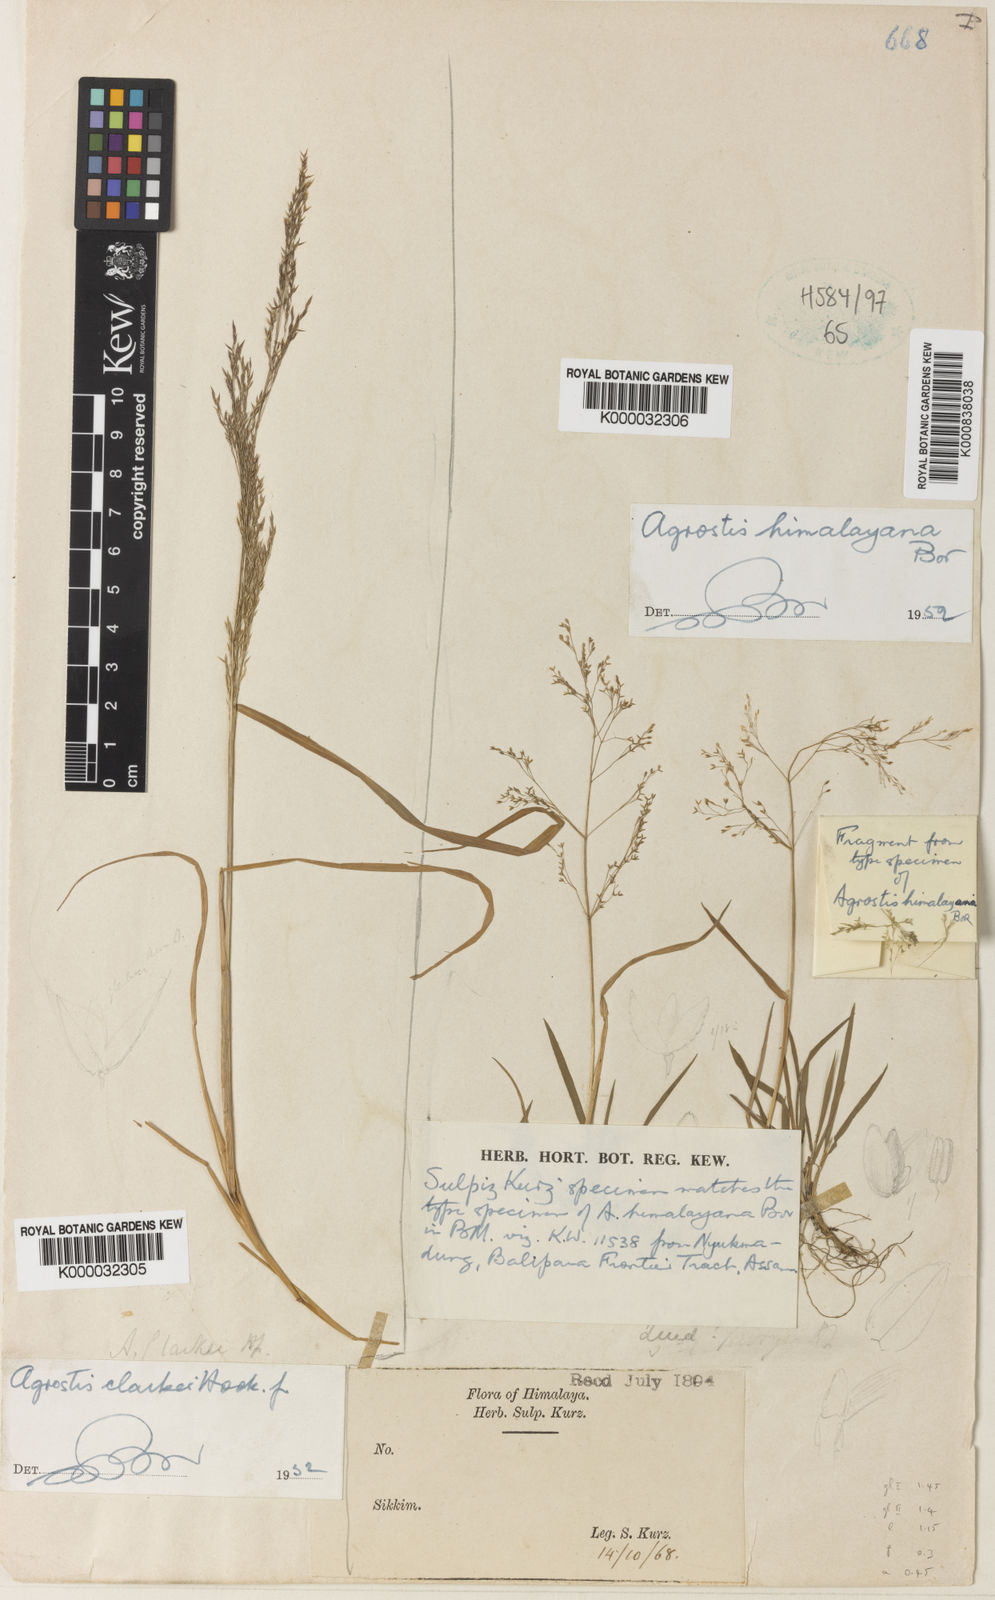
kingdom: Plantae
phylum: Tracheophyta
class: Liliopsida
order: Poales
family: Poaceae
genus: Agrostis
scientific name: Agrostis micrantha
